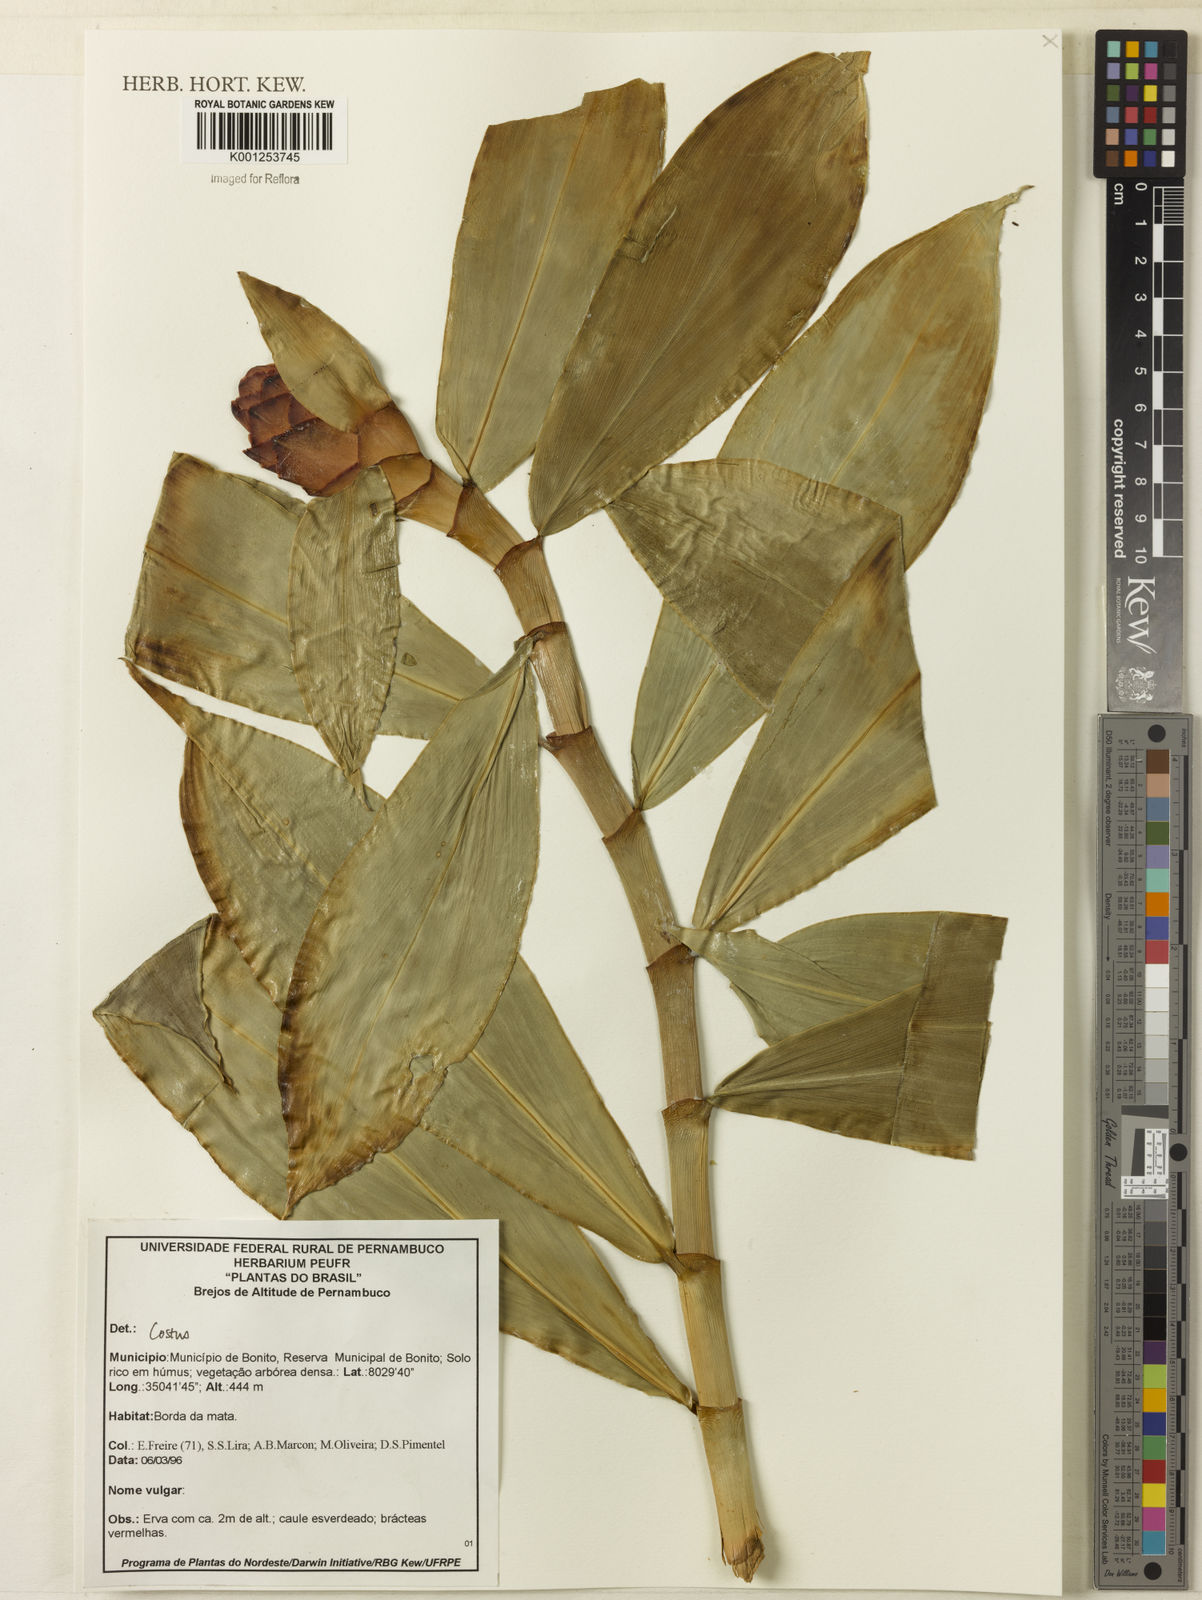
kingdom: Plantae
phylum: Tracheophyta
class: Liliopsida
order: Zingiberales
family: Costaceae
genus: Costus
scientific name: Costus
